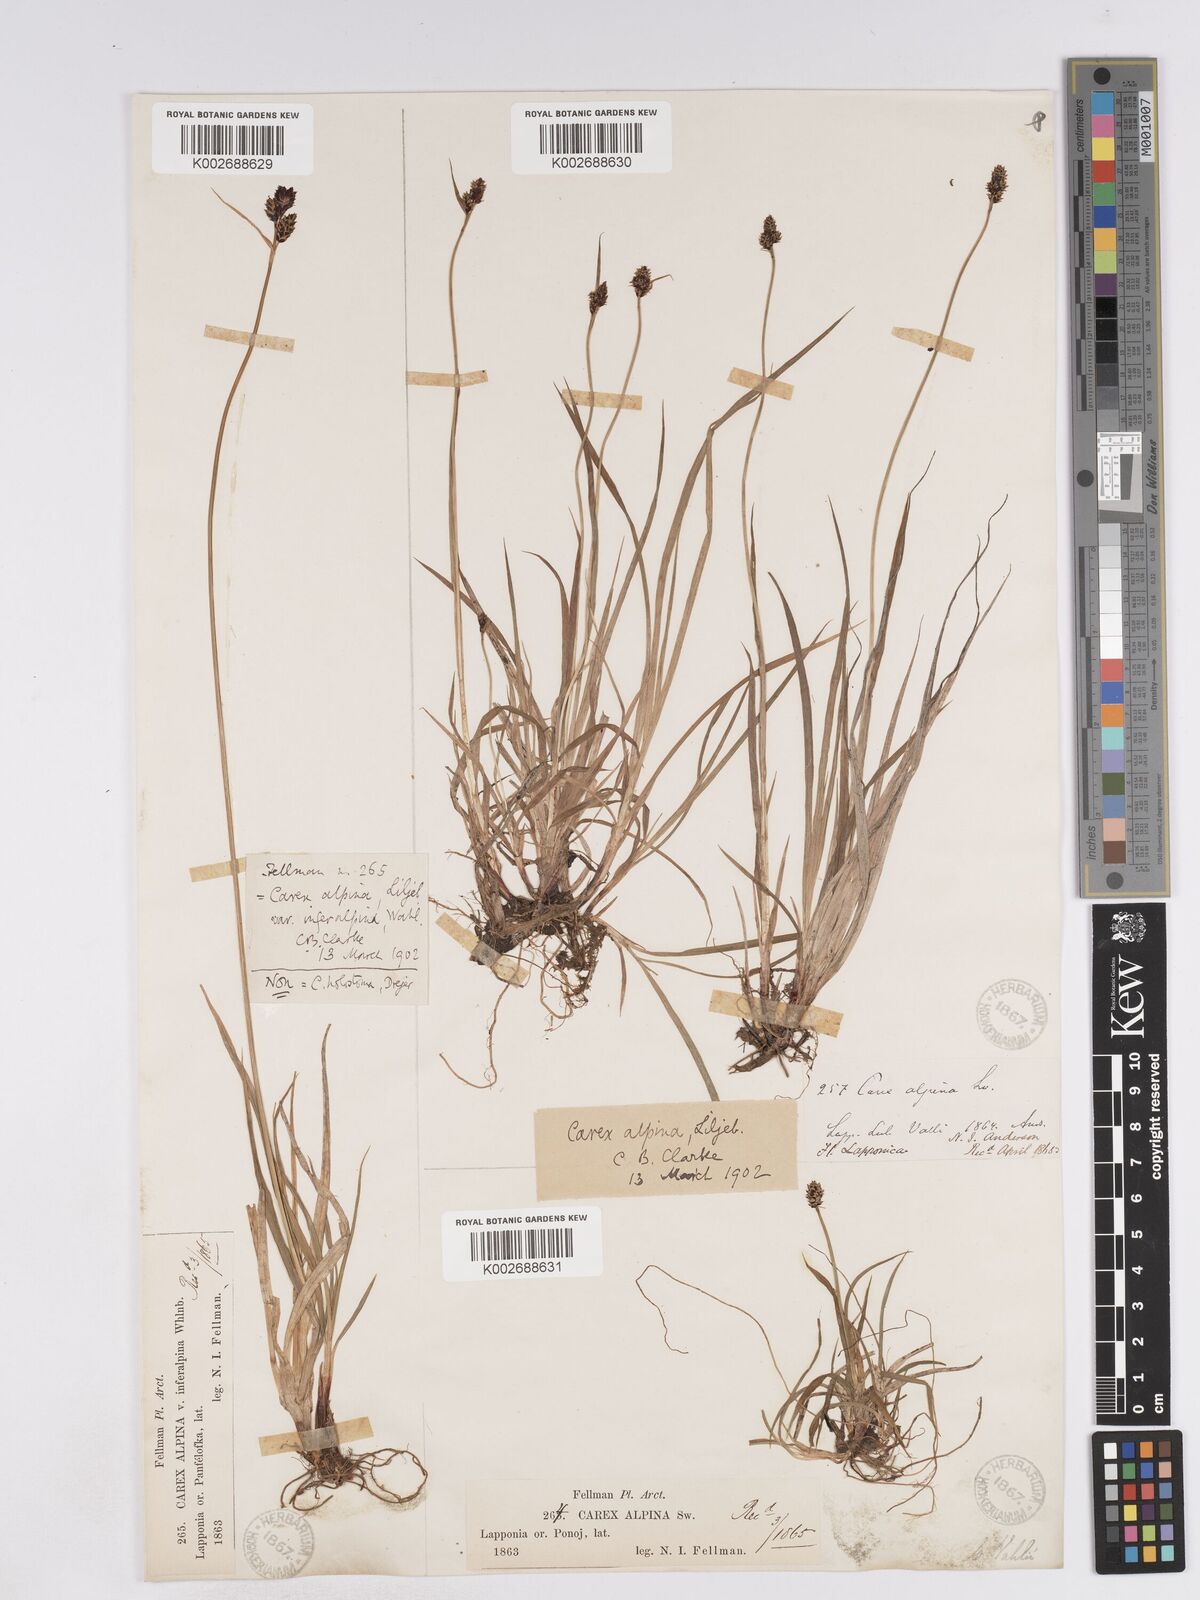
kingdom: Plantae
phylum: Tracheophyta
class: Liliopsida
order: Poales
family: Cyperaceae
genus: Carex
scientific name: Carex norvegica
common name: Close-headed alpine-sedge
